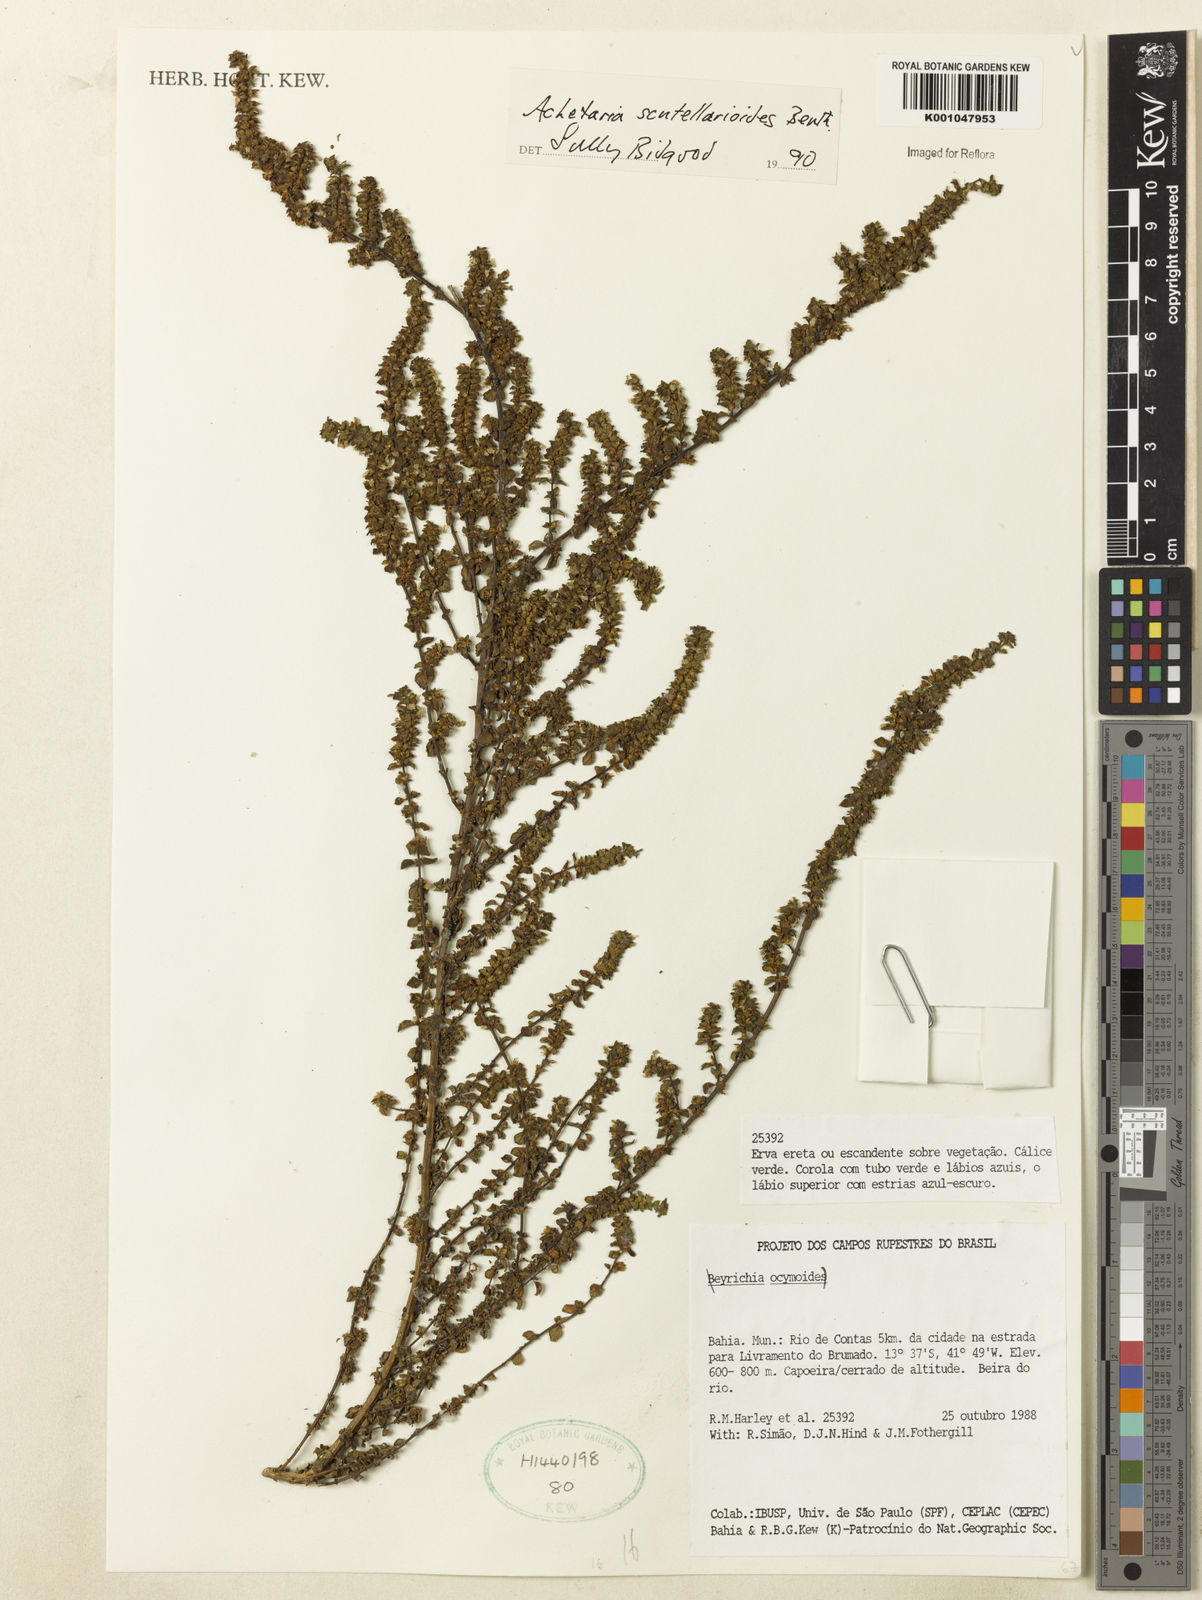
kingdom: Plantae
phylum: Tracheophyta
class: Magnoliopsida
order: Lamiales
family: Plantaginaceae
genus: Matourea
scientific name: Matourea scutellarioides
